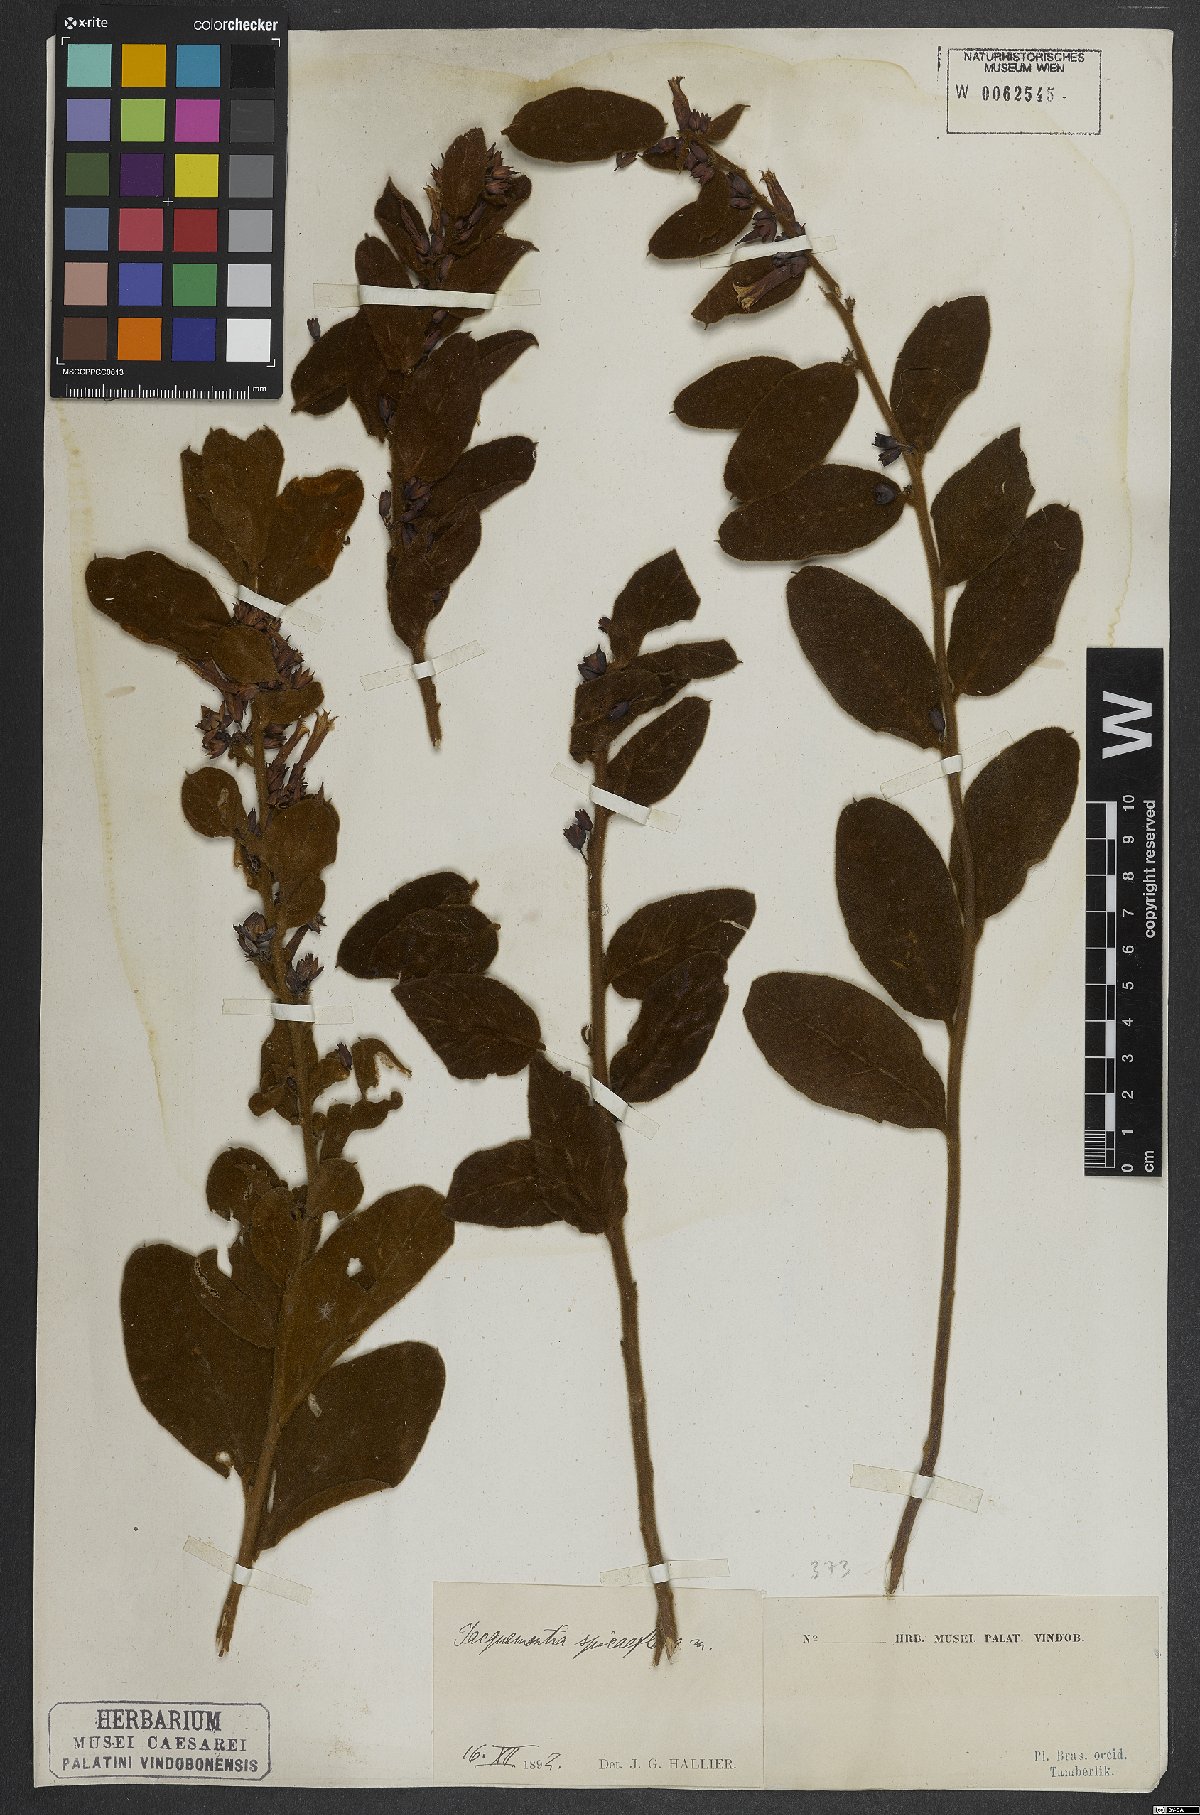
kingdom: Plantae
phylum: Tracheophyta
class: Magnoliopsida
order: Solanales
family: Convolvulaceae
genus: Jacquemontia
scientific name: Jacquemontia spiciflora
